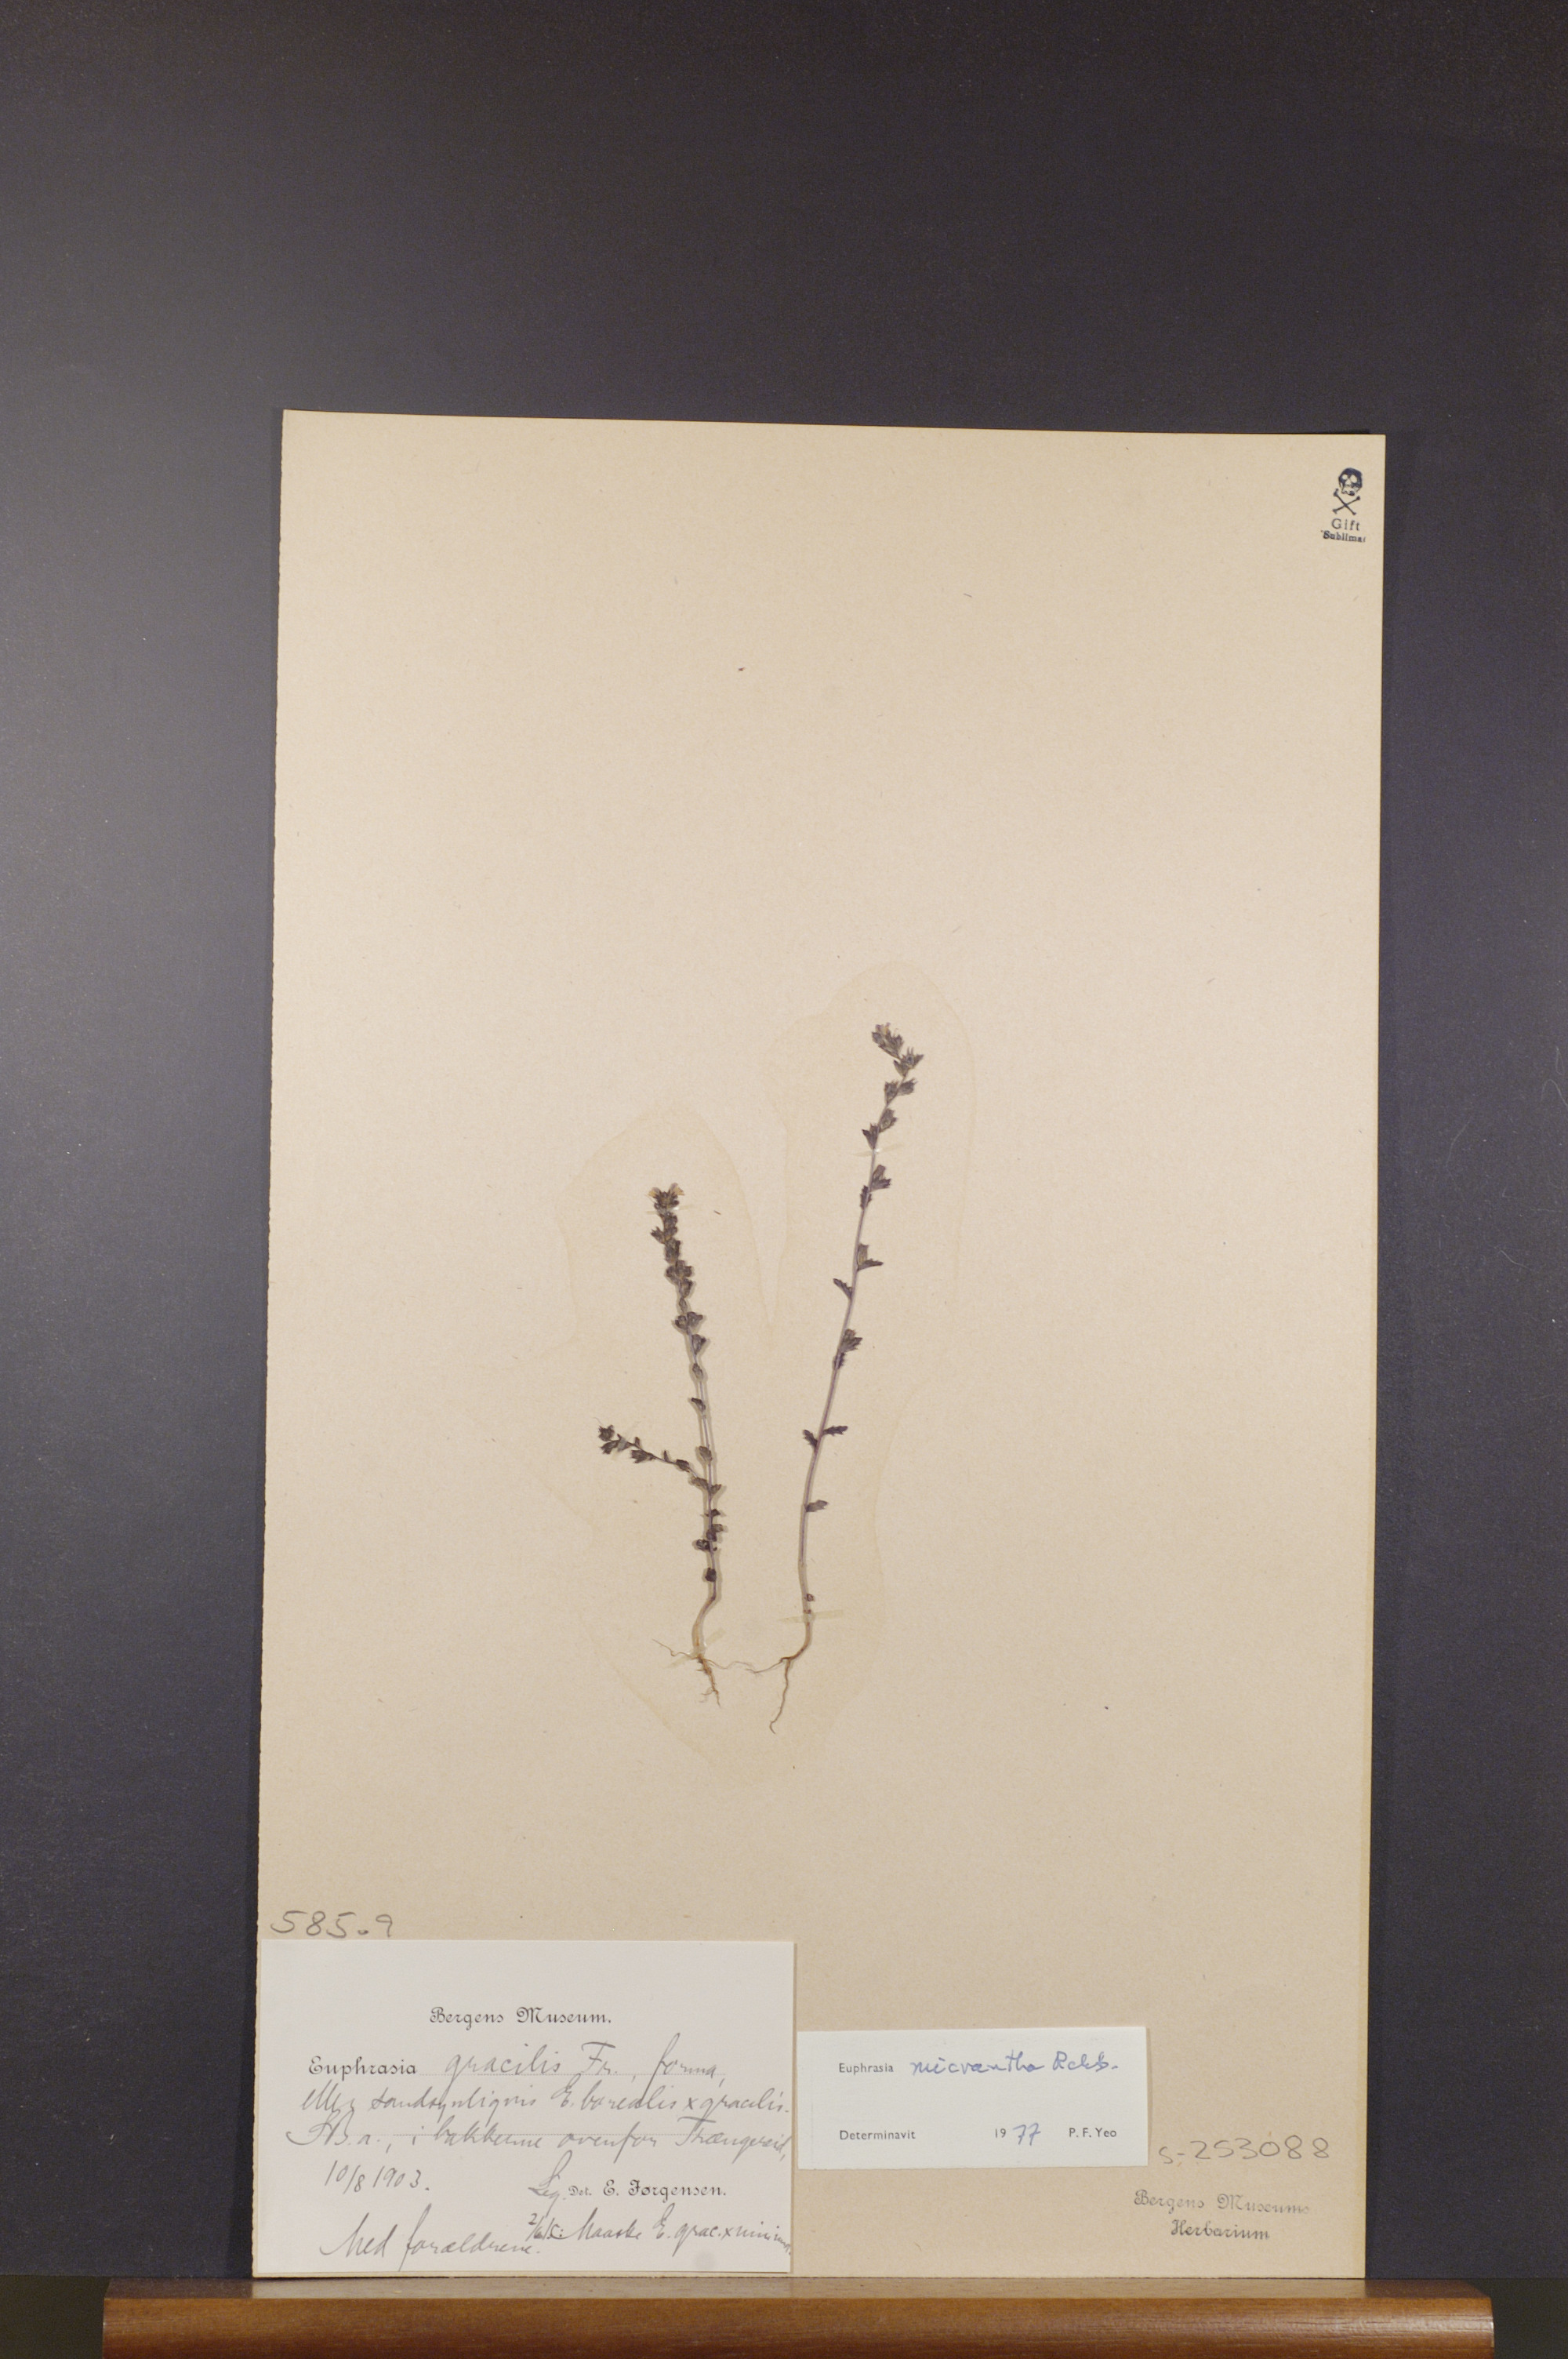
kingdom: Plantae
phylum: Tracheophyta
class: Magnoliopsida
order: Lamiales
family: Orobanchaceae
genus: Euphrasia
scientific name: Euphrasia micrantha
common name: Northern eyebright
